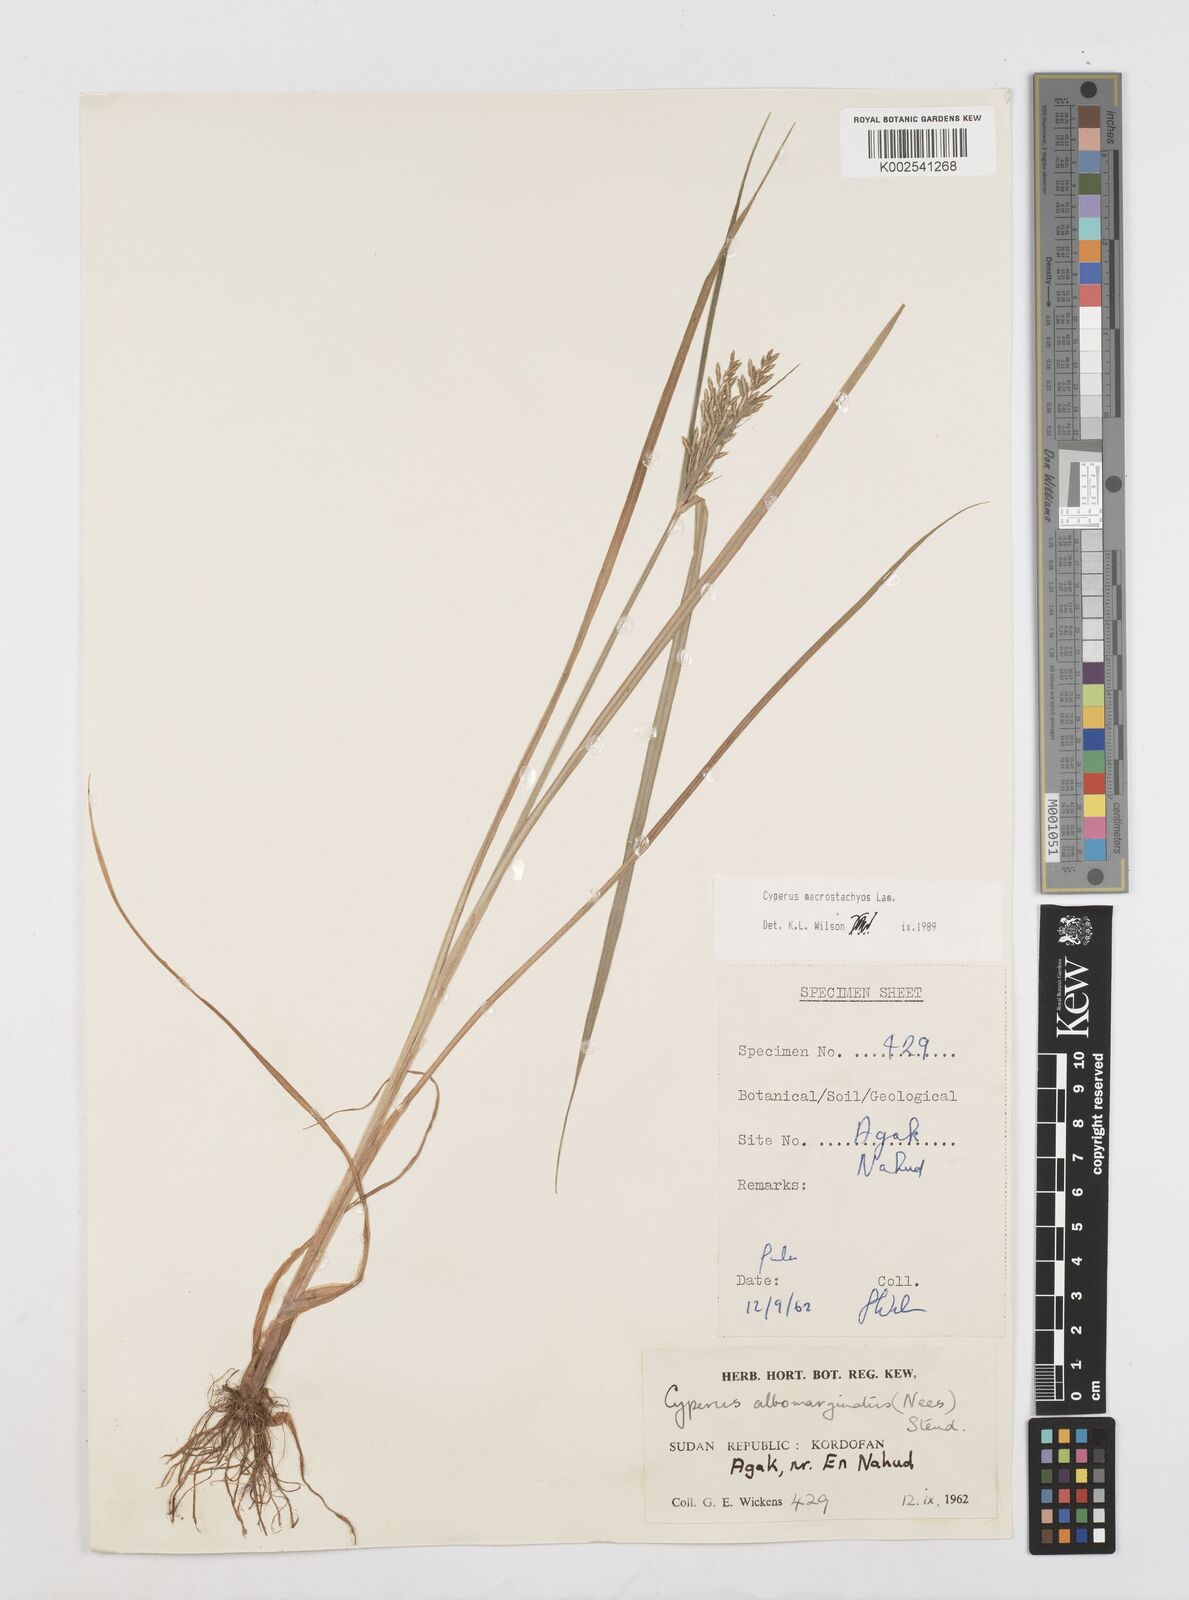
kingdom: Plantae
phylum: Tracheophyta
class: Liliopsida
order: Poales
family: Cyperaceae
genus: Cyperus
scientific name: Cyperus macrostachyos
